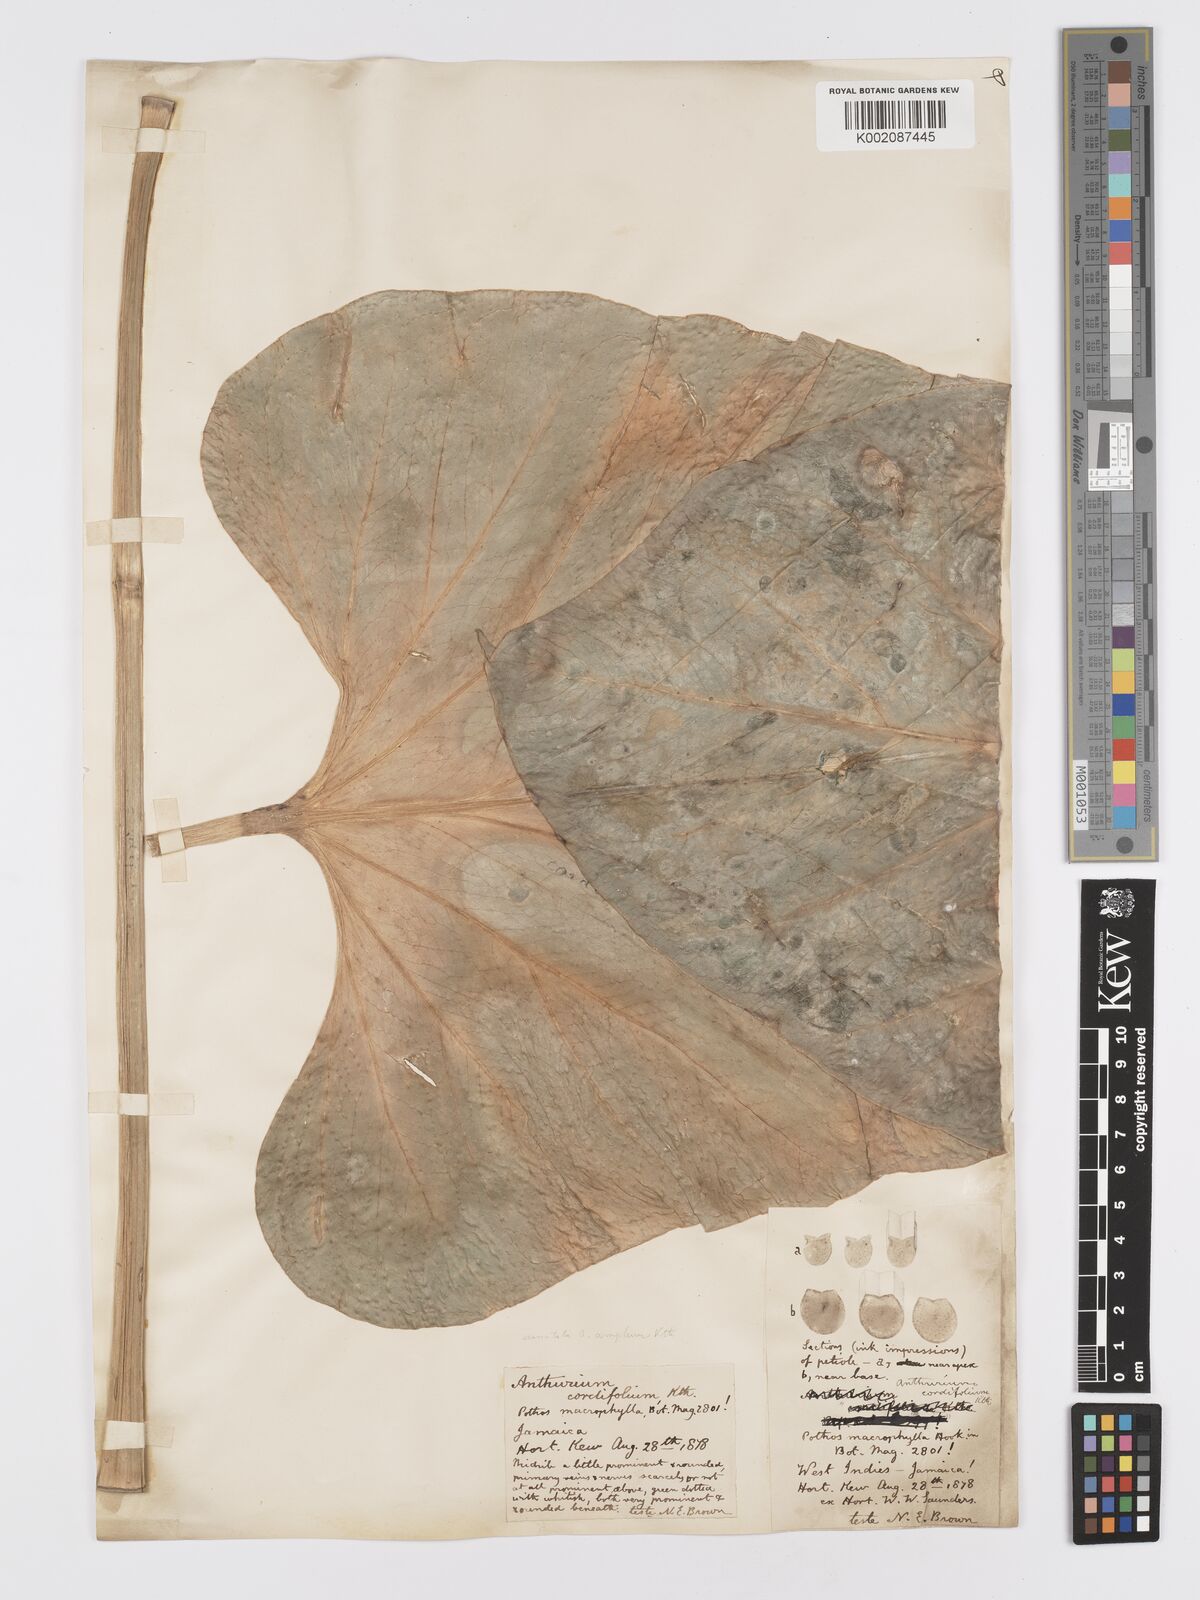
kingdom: Plantae
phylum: Tracheophyta
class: Liliopsida
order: Alismatales
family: Araceae
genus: Anthurium
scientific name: Anthurium
